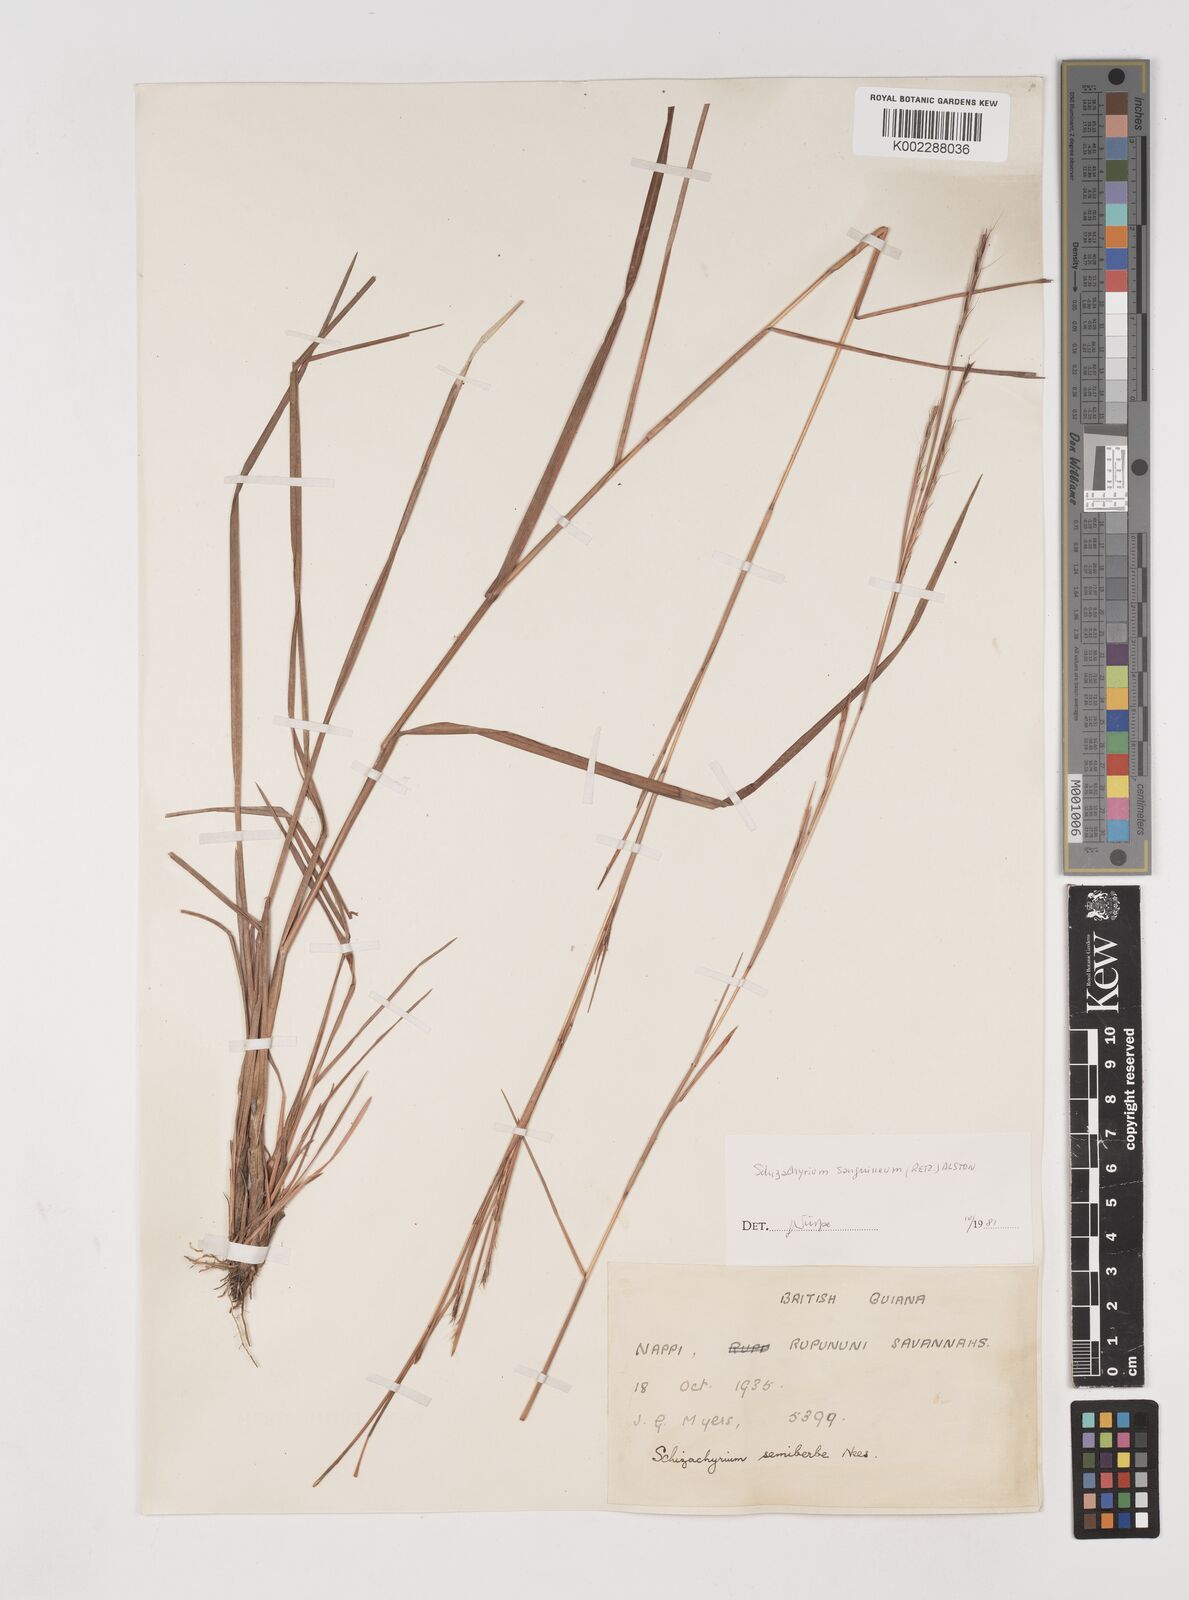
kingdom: Plantae
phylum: Tracheophyta
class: Liliopsida
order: Poales
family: Poaceae
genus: Schizachyrium
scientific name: Schizachyrium sanguineum
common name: Crimson bluestem
